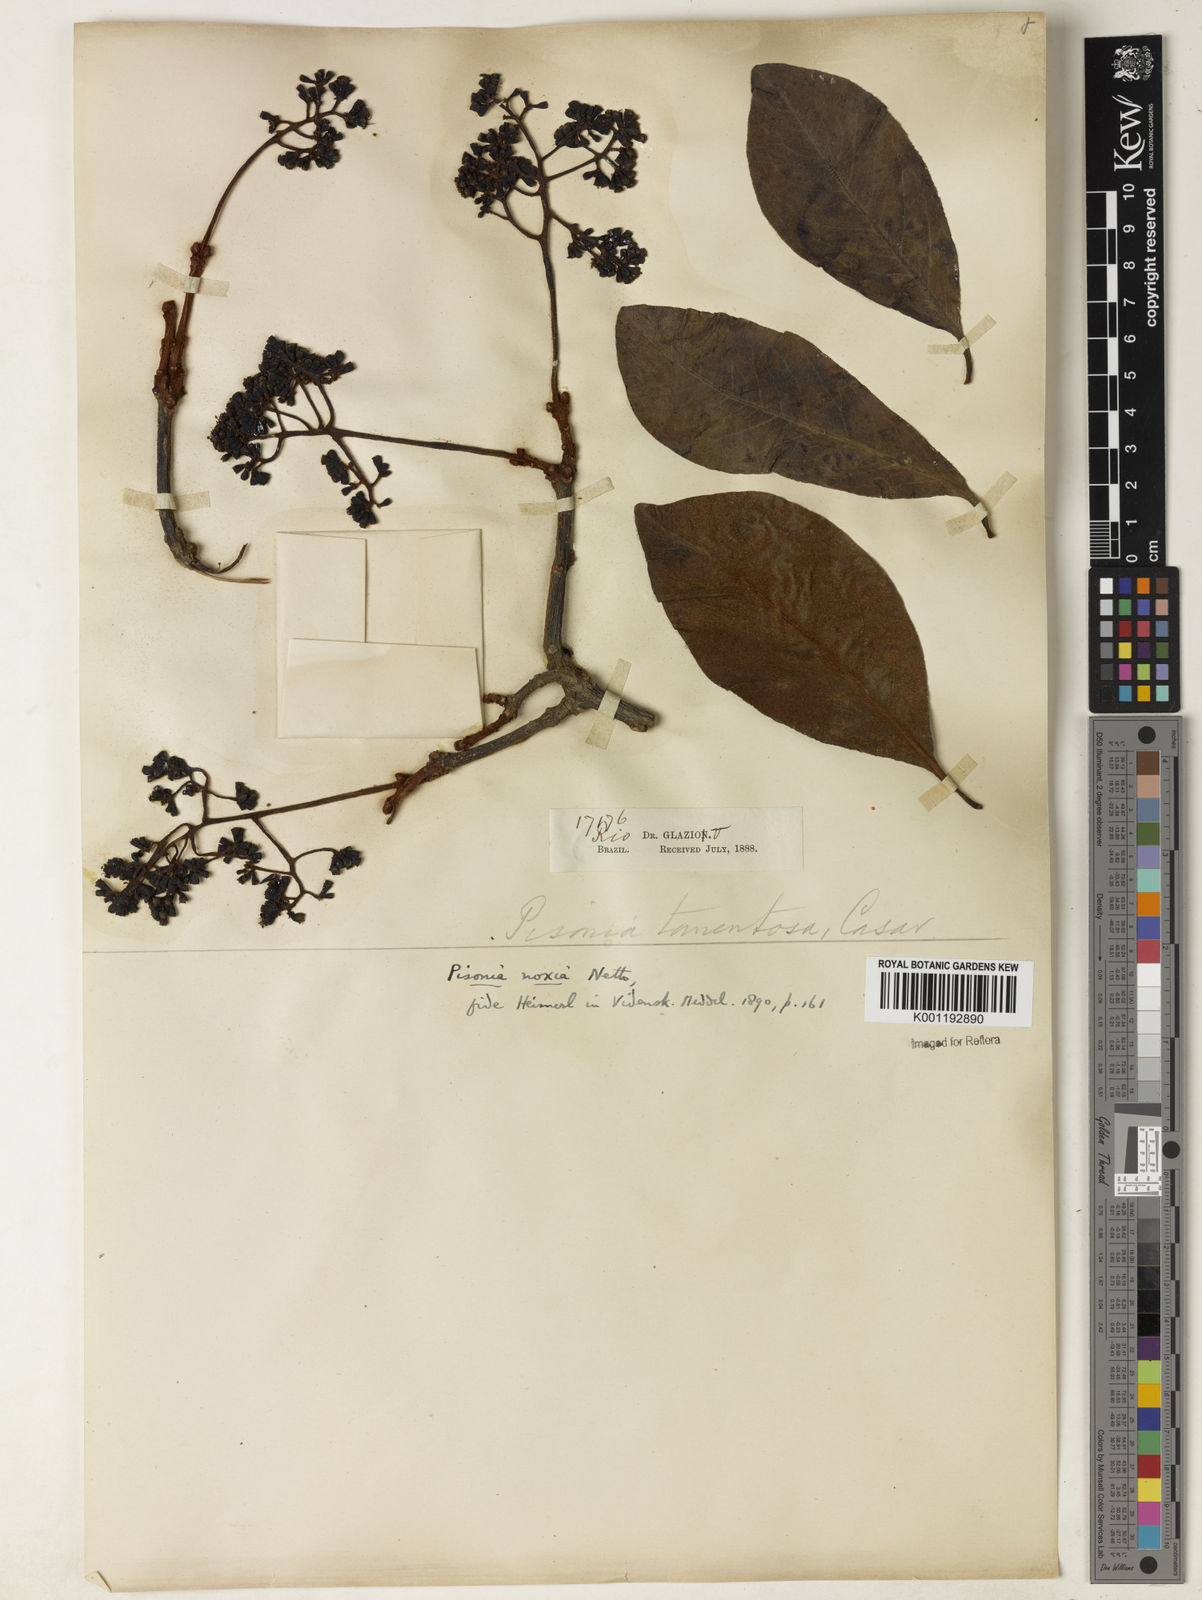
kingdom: Plantae
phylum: Tracheophyta
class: Magnoliopsida
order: Caryophyllales
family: Nyctaginaceae
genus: Guapira
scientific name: Guapira noxia
